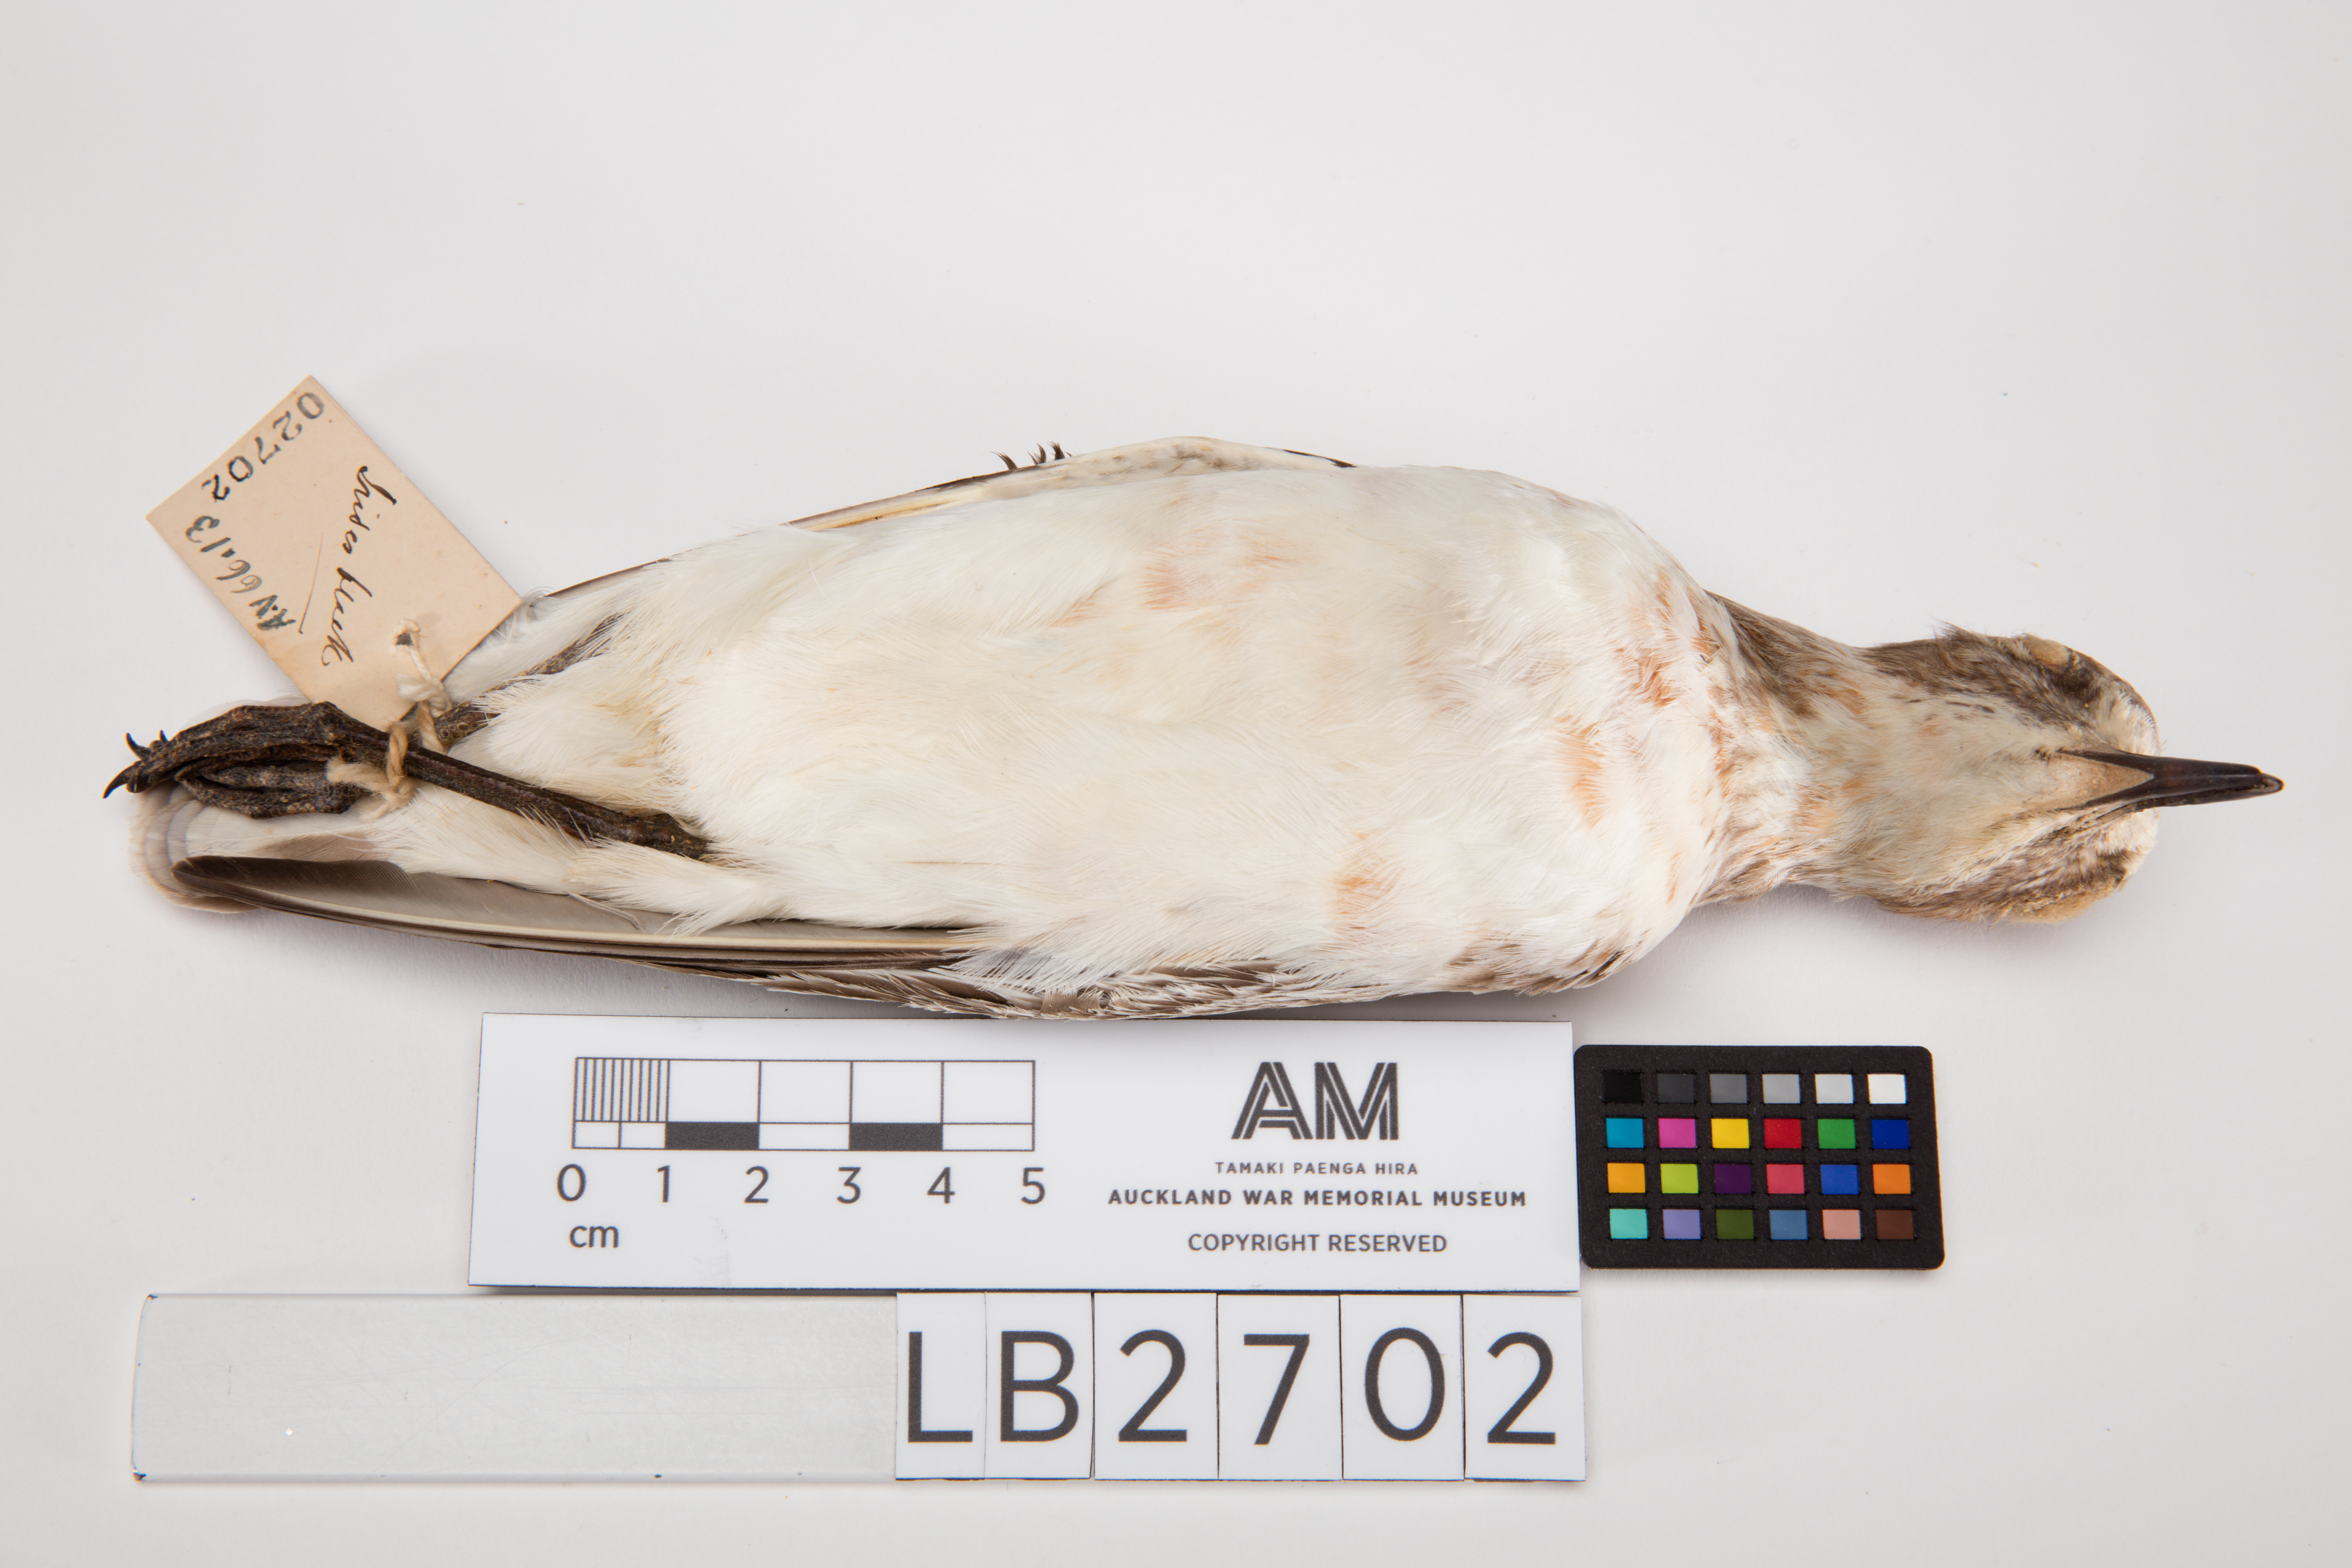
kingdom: Animalia
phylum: Chordata
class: Aves
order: Charadriiformes
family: Charadriidae
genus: Charadrius
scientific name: Charadrius obscurus
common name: New zealand plover
